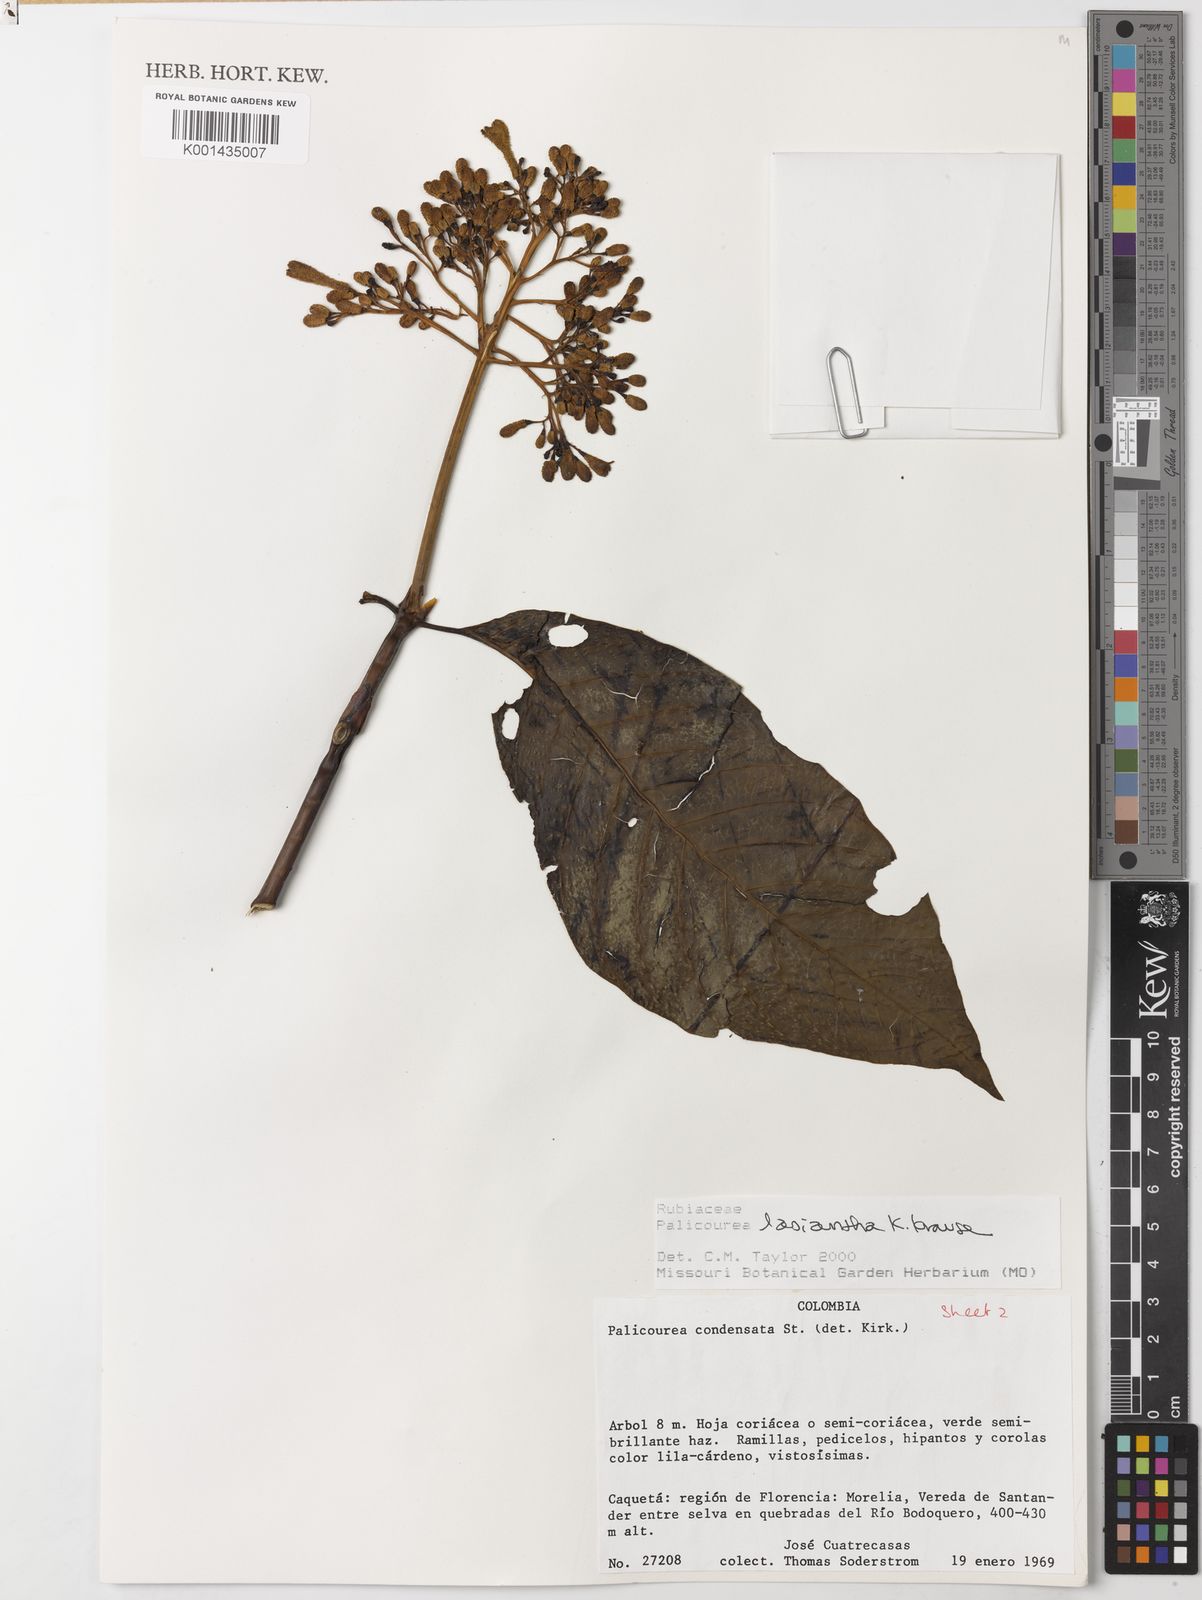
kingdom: Plantae
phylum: Tracheophyta
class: Magnoliopsida
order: Gentianales
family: Rubiaceae
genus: Palicourea
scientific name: Palicourea lasiantha
